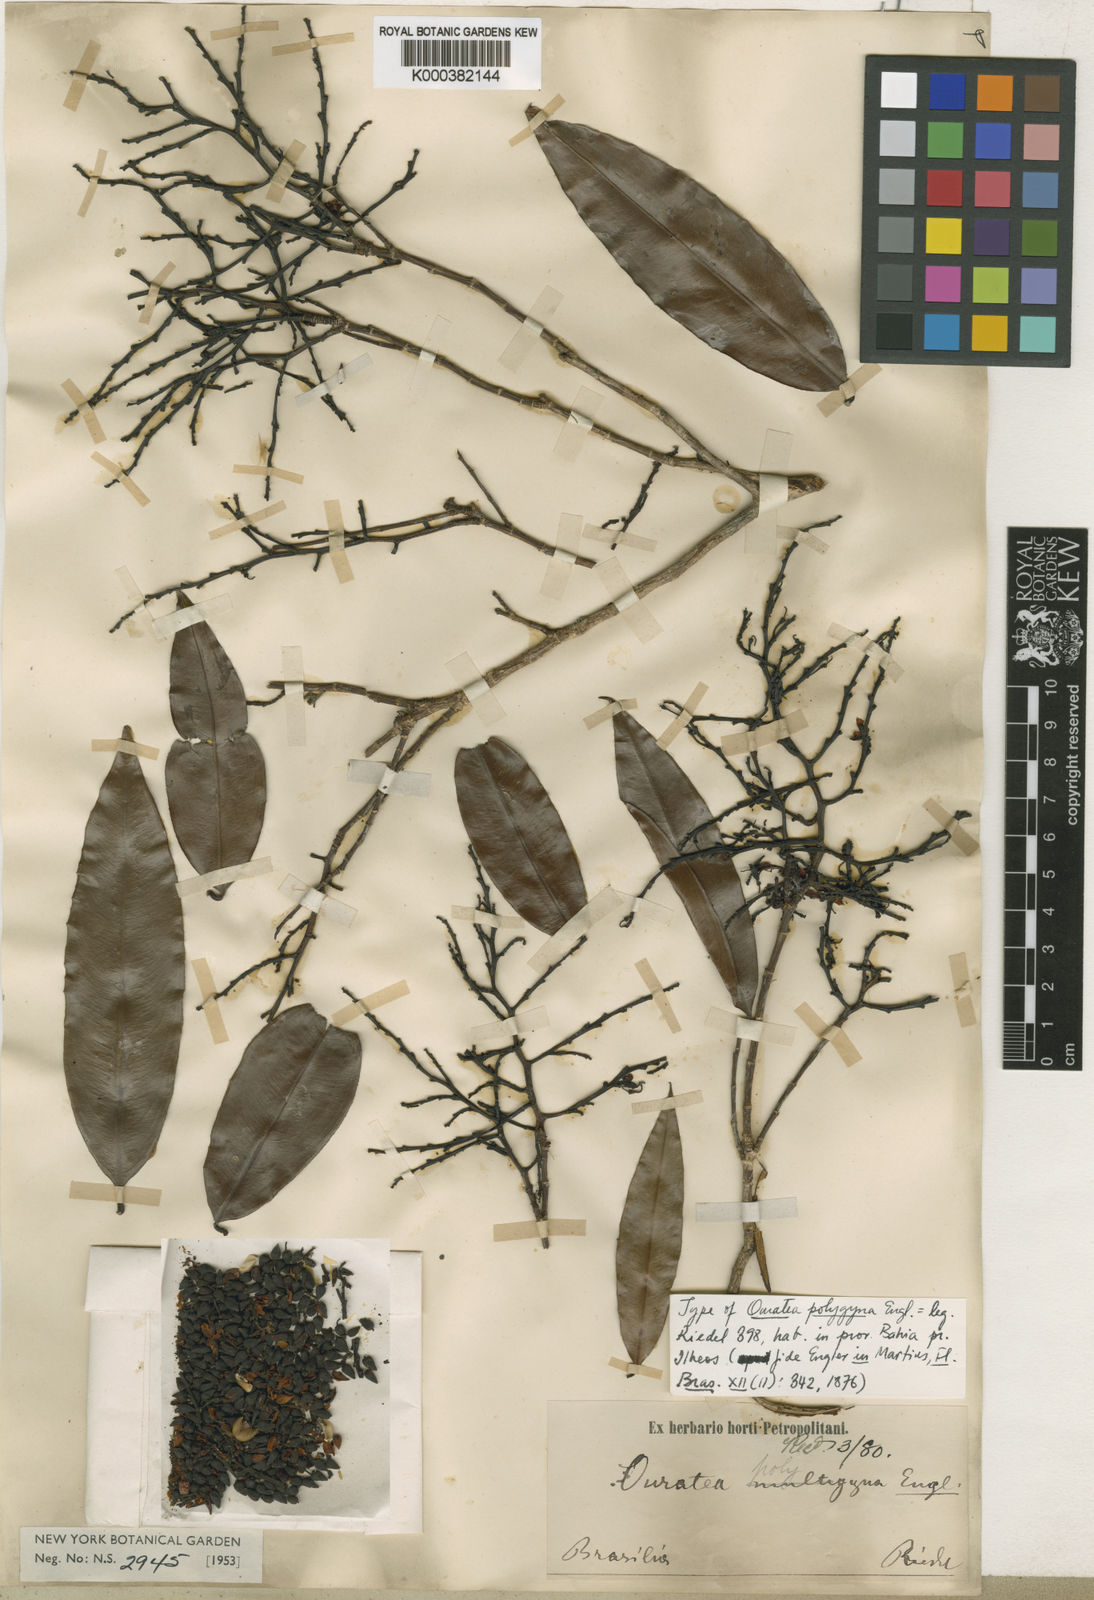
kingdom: Plantae
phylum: Tracheophyta
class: Magnoliopsida
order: Malpighiales
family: Ochnaceae
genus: Ouratea
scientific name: Ouratea polygyna
